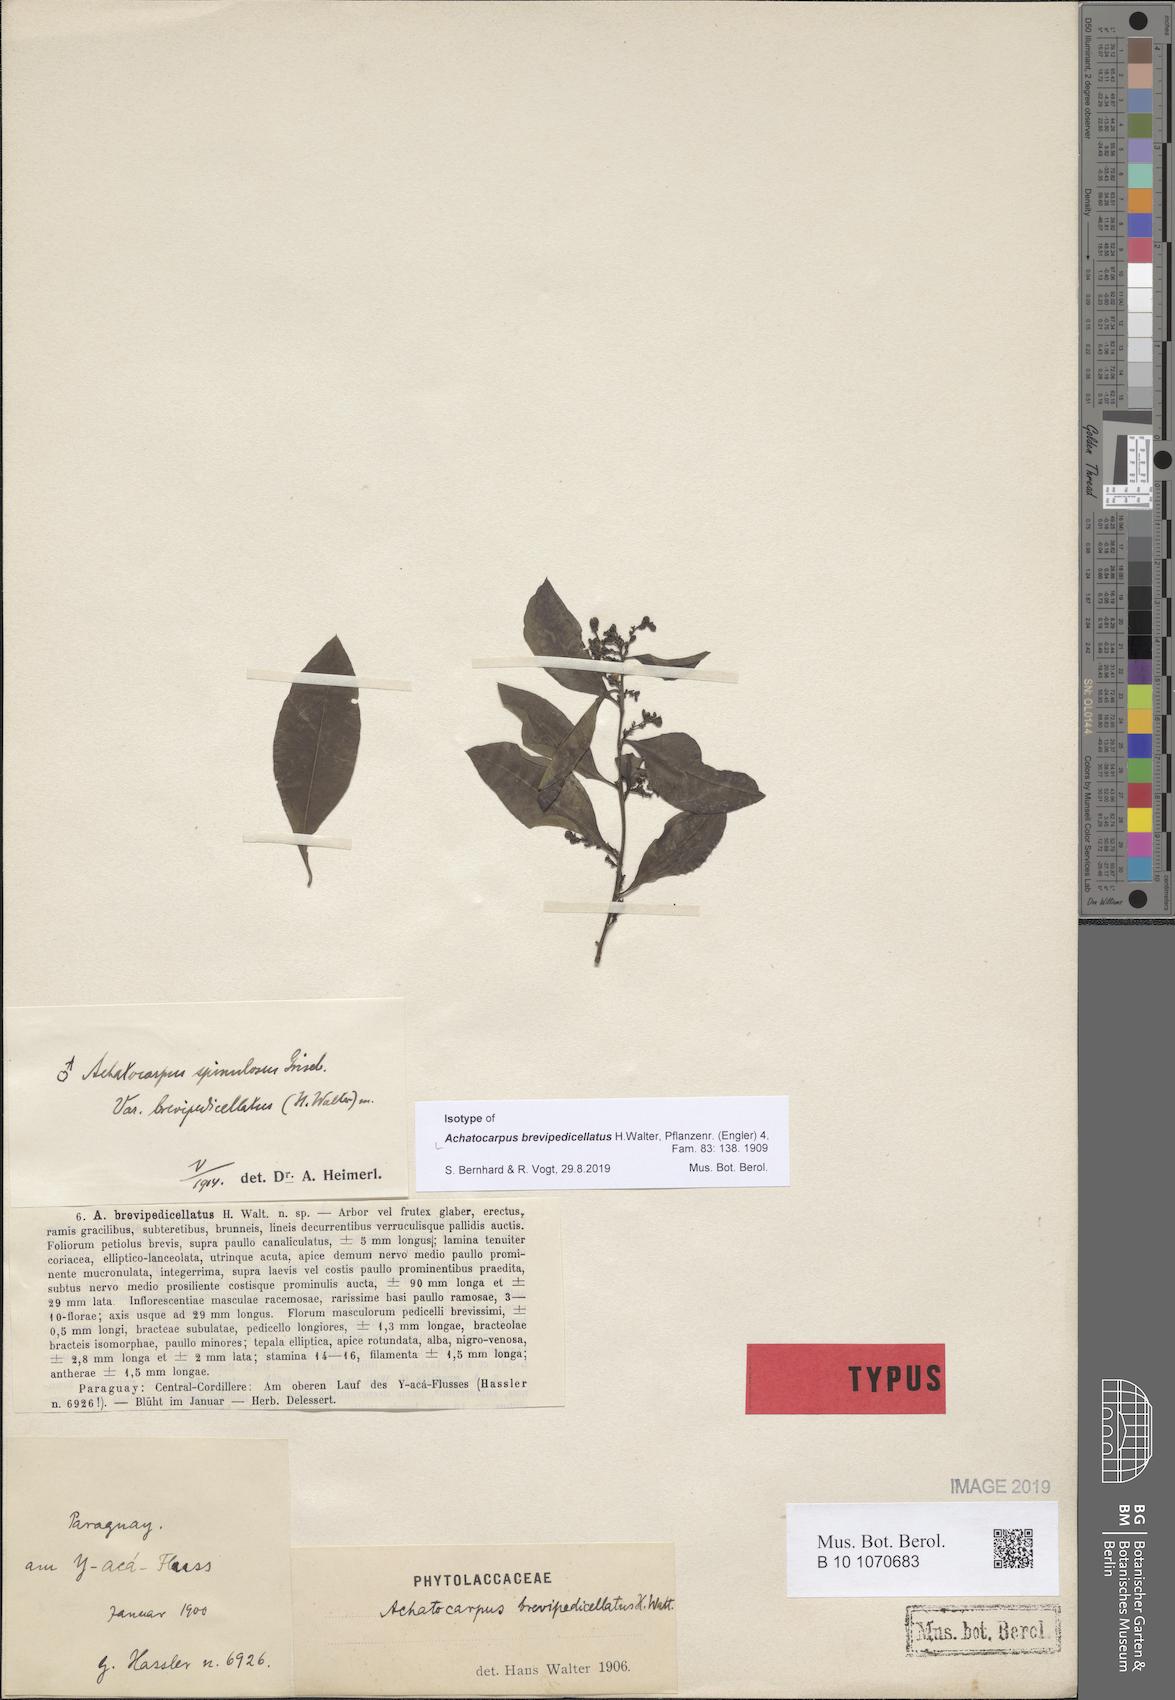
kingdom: Plantae
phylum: Tracheophyta
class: Magnoliopsida
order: Caryophyllales
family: Achatocarpaceae
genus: Achatocarpus
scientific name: Achatocarpus brevipedicellatus
